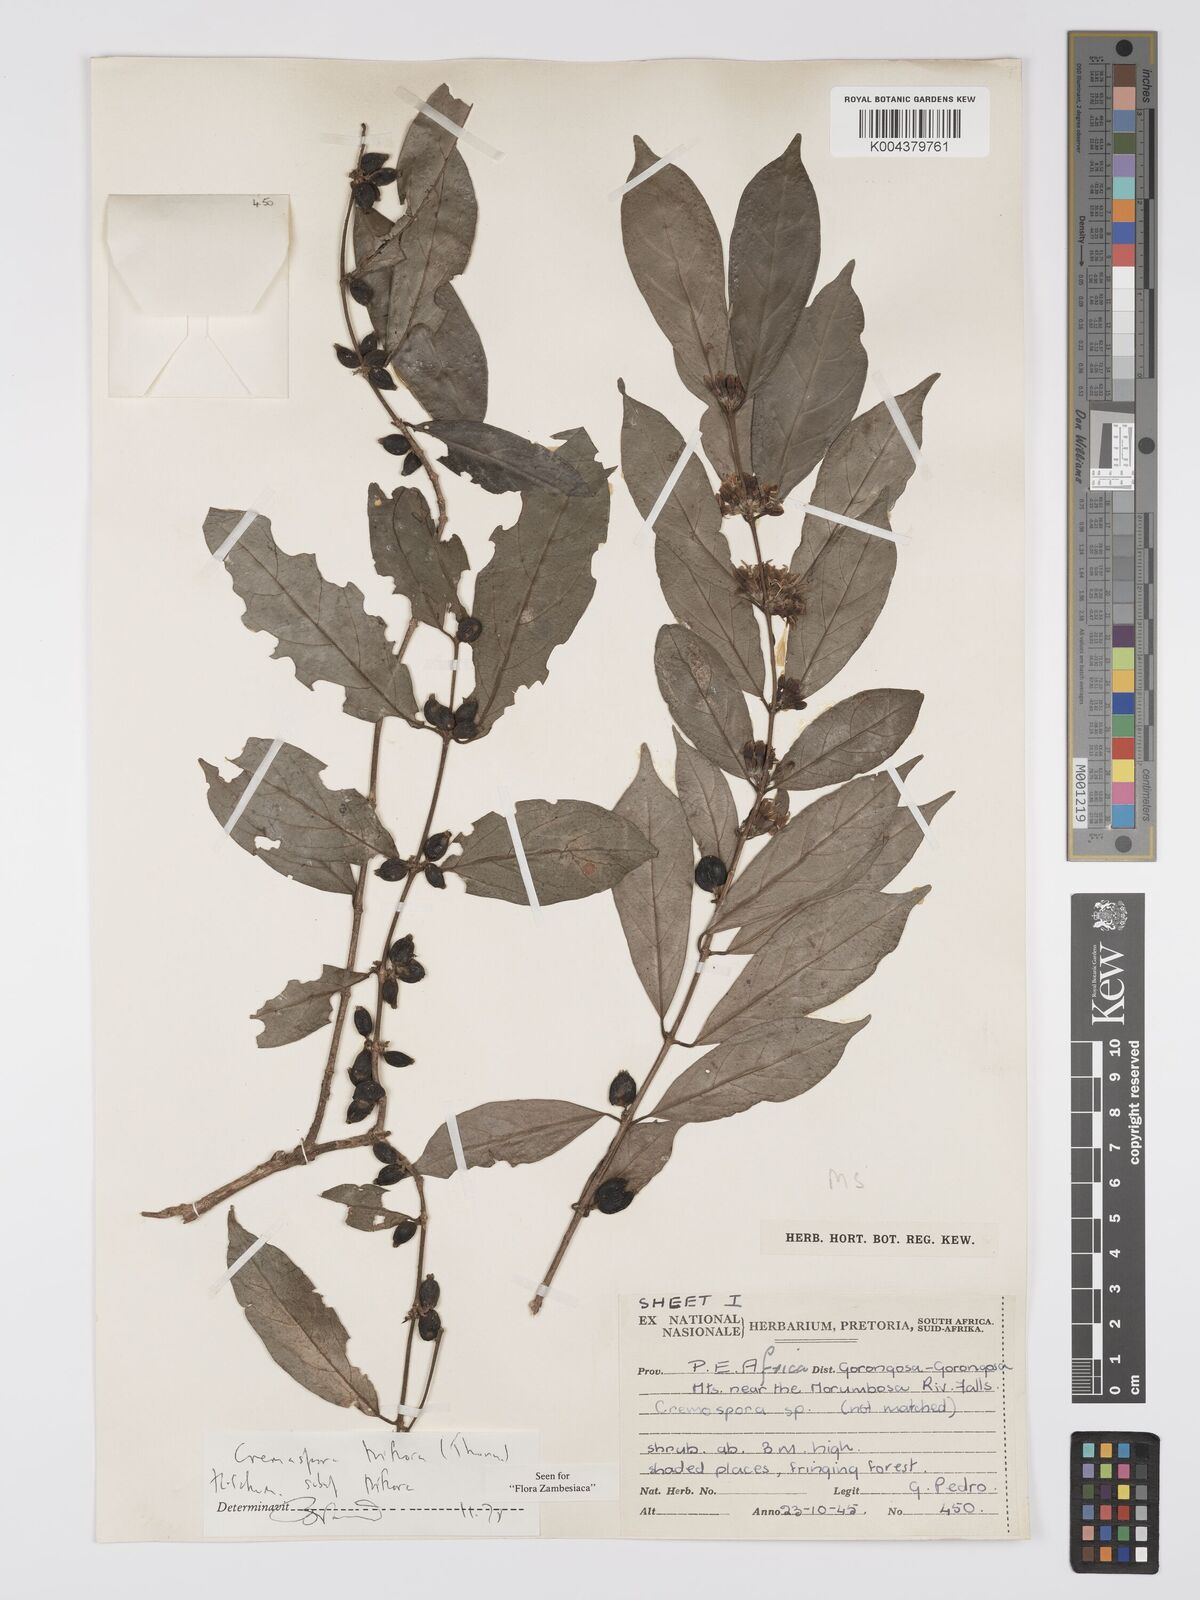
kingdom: Plantae
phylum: Tracheophyta
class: Magnoliopsida
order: Gentianales
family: Rubiaceae
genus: Cremaspora
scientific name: Cremaspora triflora
